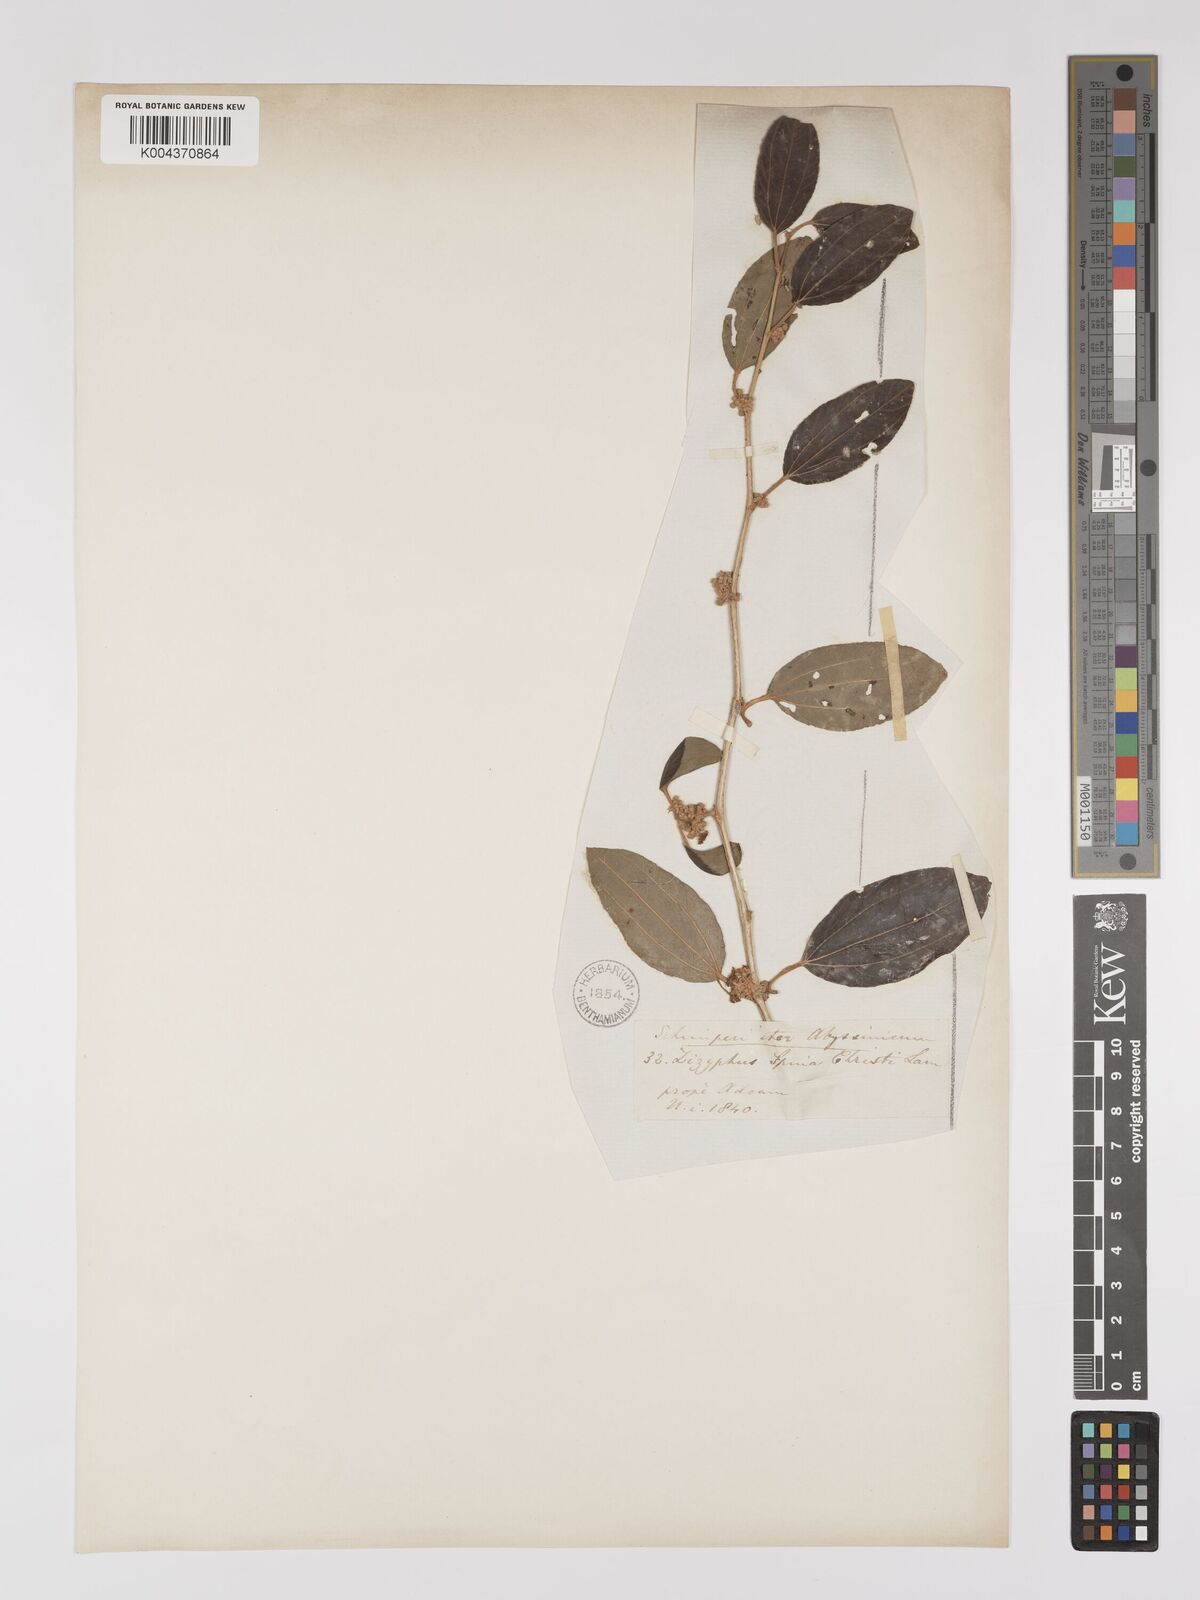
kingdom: Plantae
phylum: Tracheophyta
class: Magnoliopsida
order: Rosales
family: Rhamnaceae
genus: Ziziphus
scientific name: Ziziphus spina-christi
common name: Syrian christ-thorn
